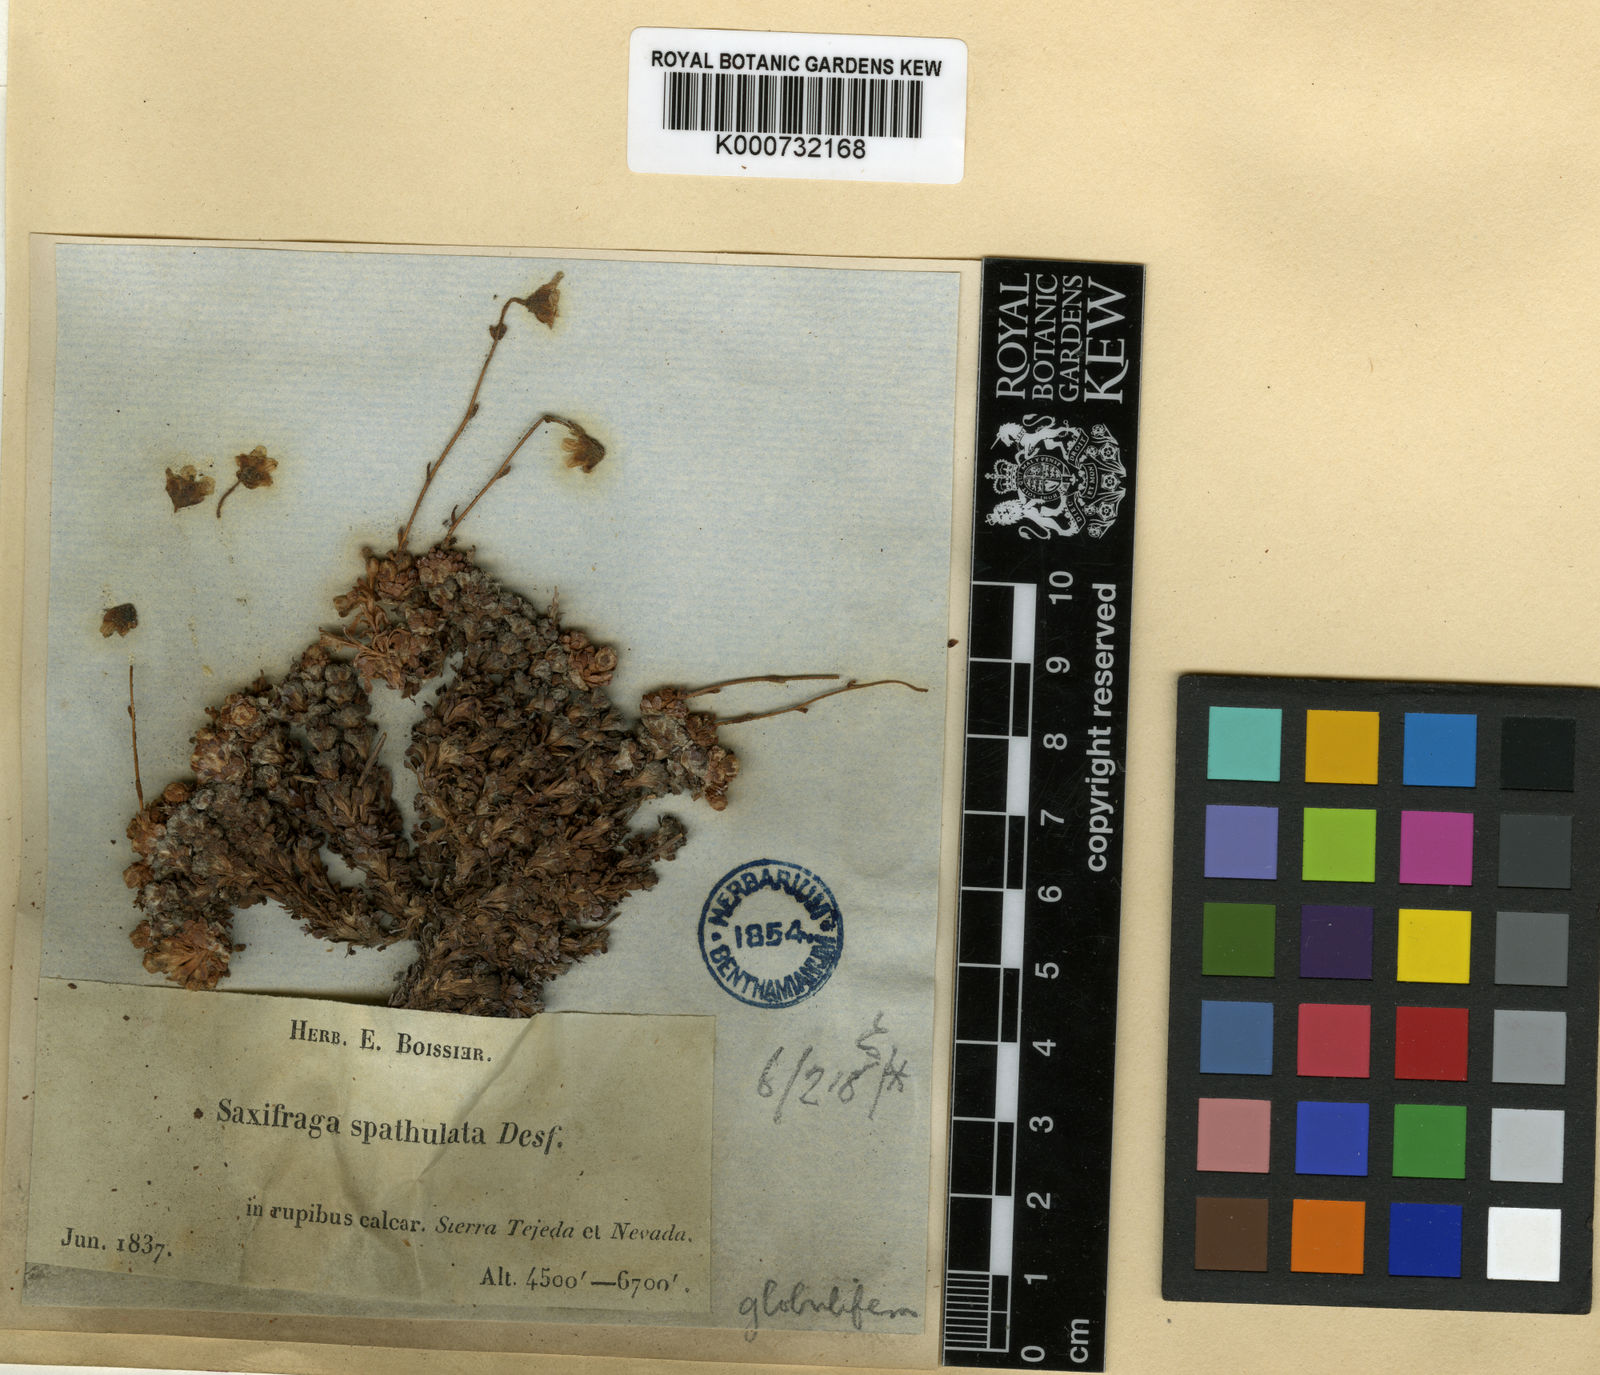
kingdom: Plantae
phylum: Tracheophyta
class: Magnoliopsida
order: Saxifragales
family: Saxifragaceae
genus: Saxifraga
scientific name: Saxifraga erioblasta
